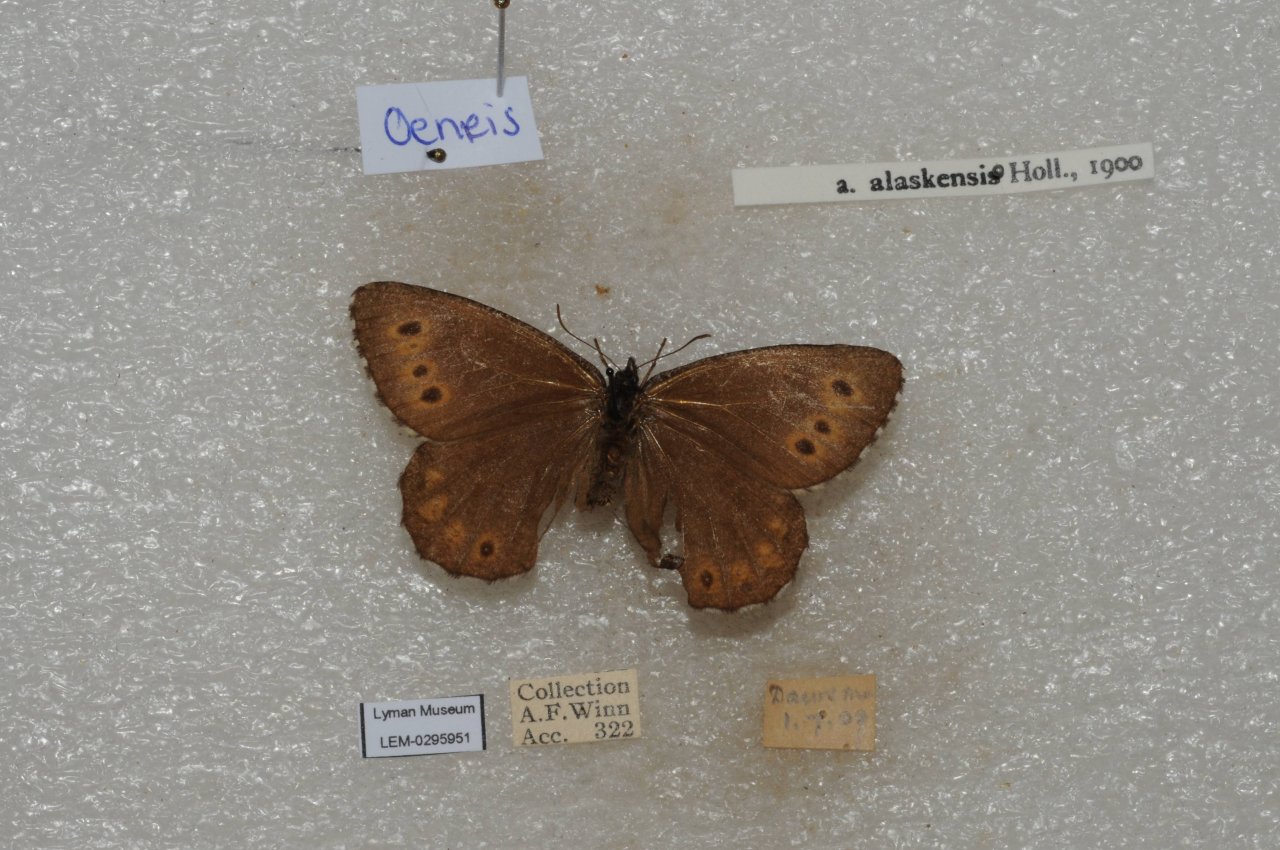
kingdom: Animalia
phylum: Arthropoda
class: Insecta
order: Lepidoptera
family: Nymphalidae
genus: Oeneis
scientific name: Oeneis jutta
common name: Jutta Arctic
